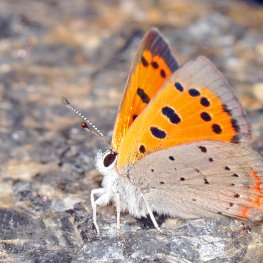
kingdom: Animalia
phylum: Arthropoda
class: Insecta
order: Lepidoptera
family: Lycaenidae
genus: Lycaena
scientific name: Lycaena phlaeas
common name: American Copper
